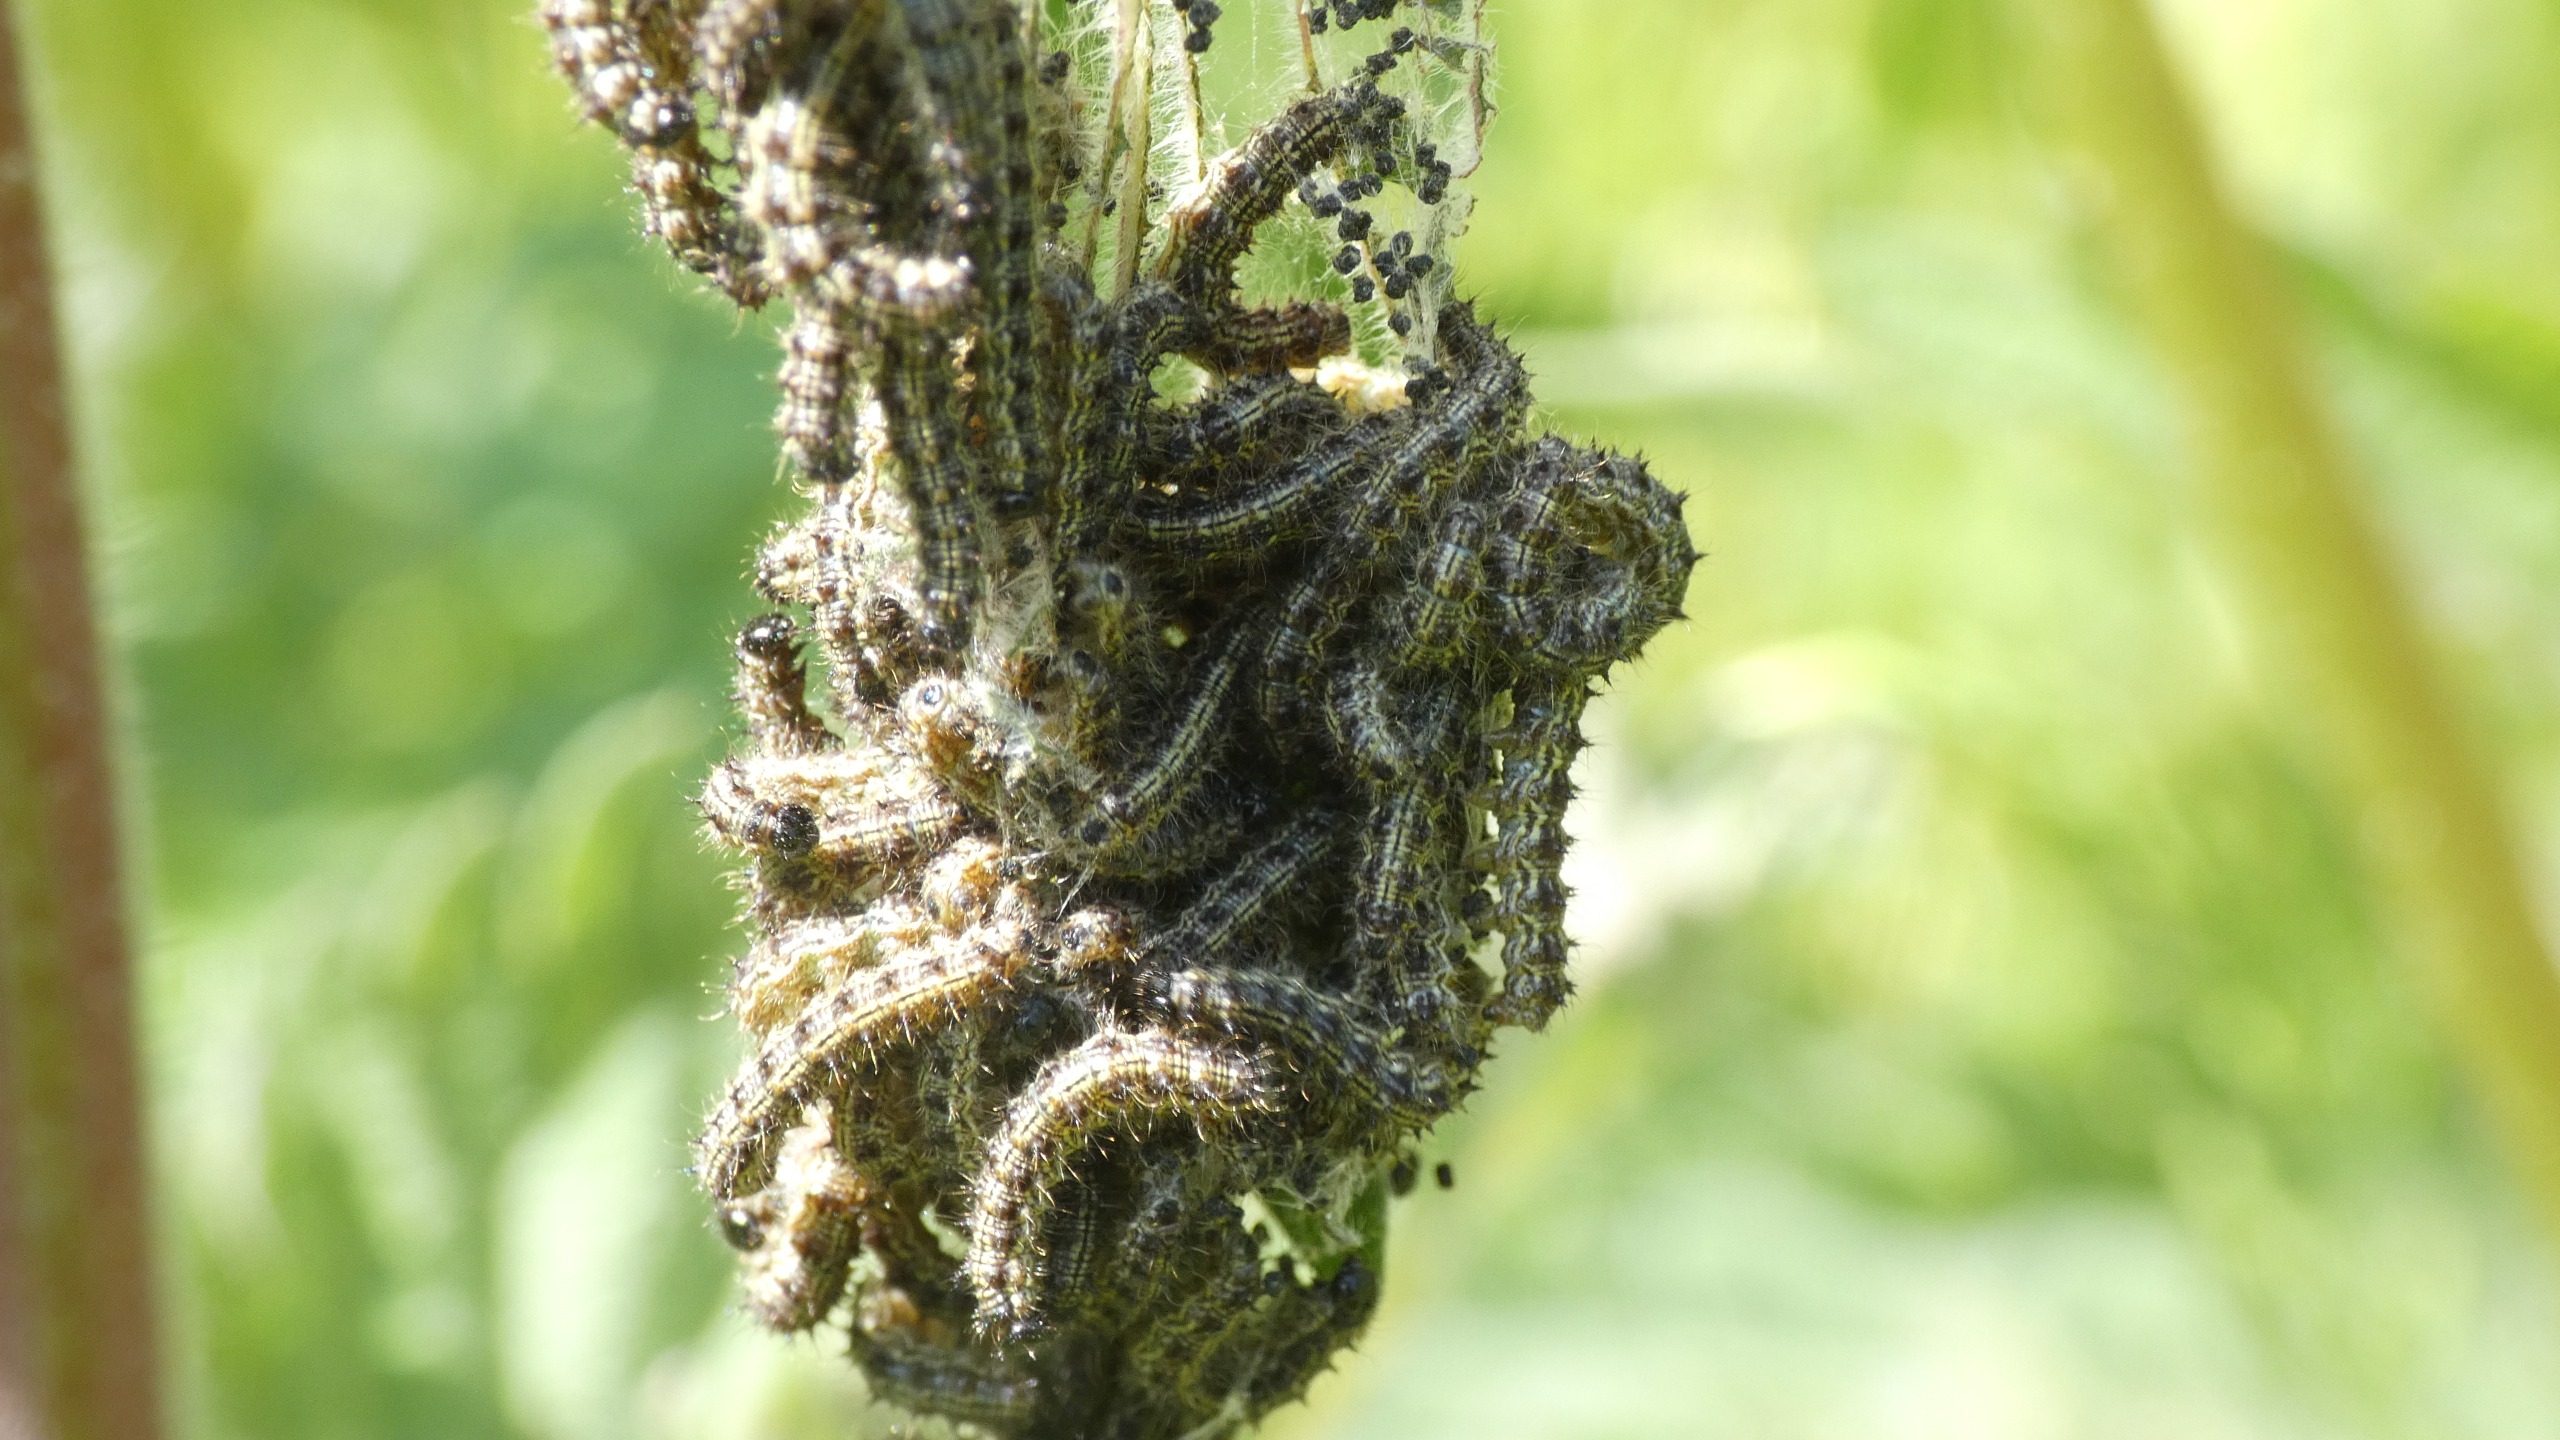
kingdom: Animalia
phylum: Arthropoda
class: Insecta
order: Lepidoptera
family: Nymphalidae
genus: Aglais
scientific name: Aglais urticae
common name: Nældens takvinge
